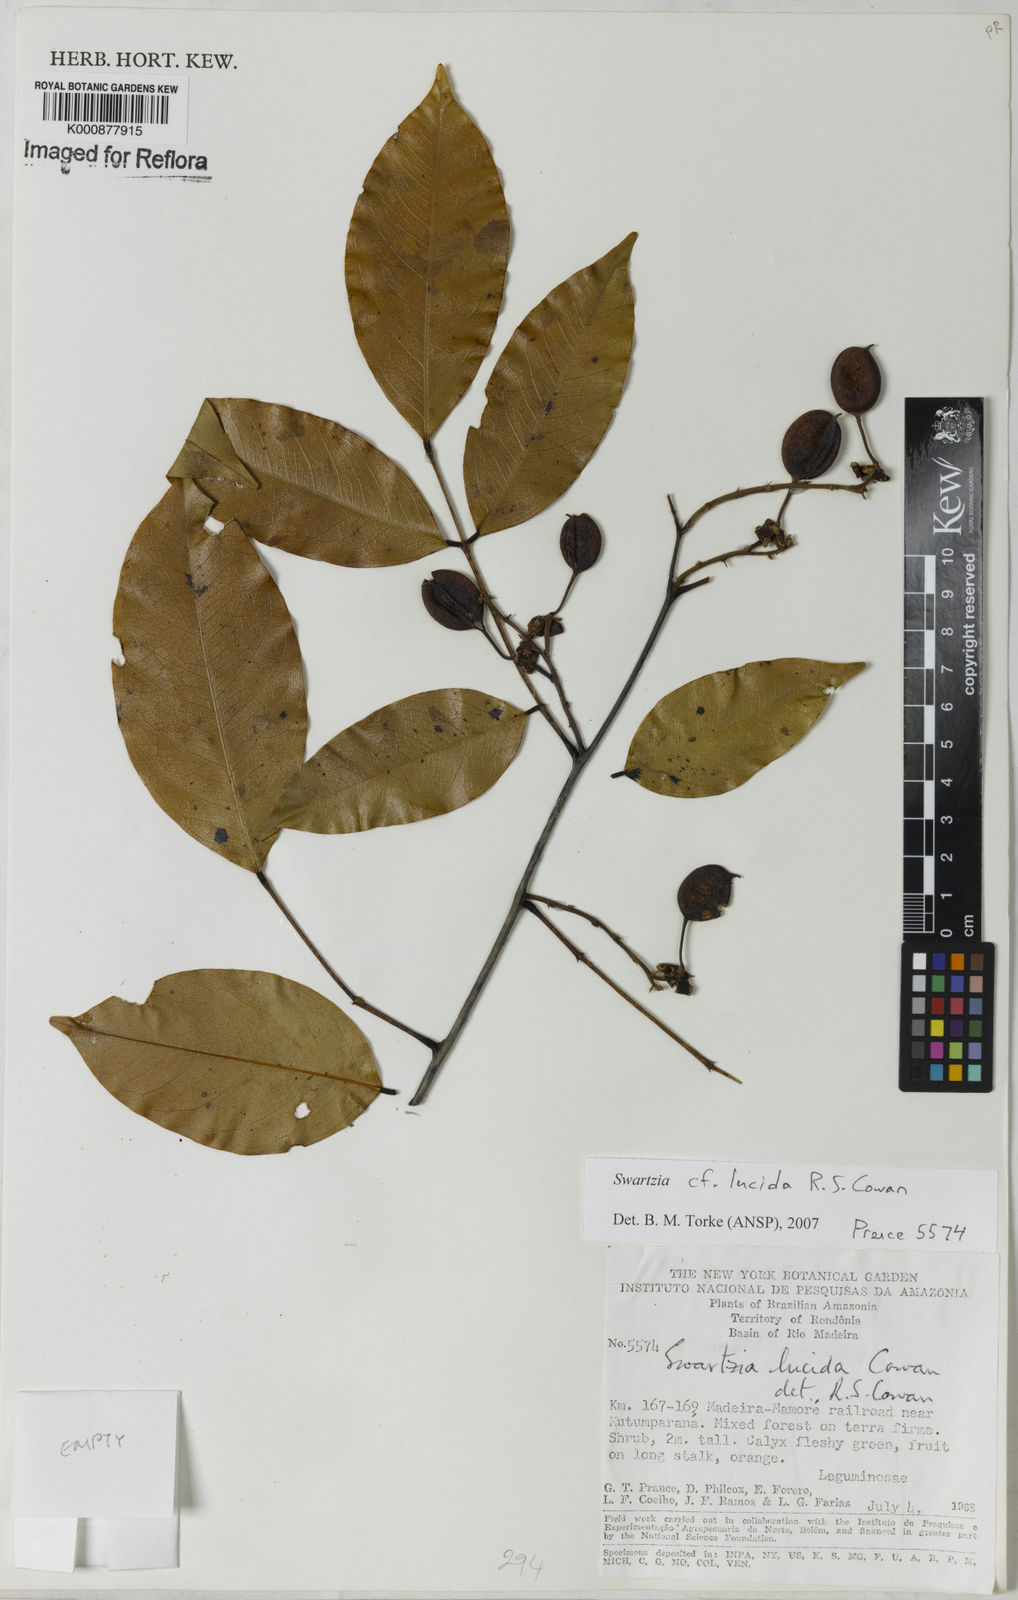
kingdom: Plantae
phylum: Tracheophyta
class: Magnoliopsida
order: Fabales
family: Fabaceae
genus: Swartzia
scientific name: Swartzia lucida
